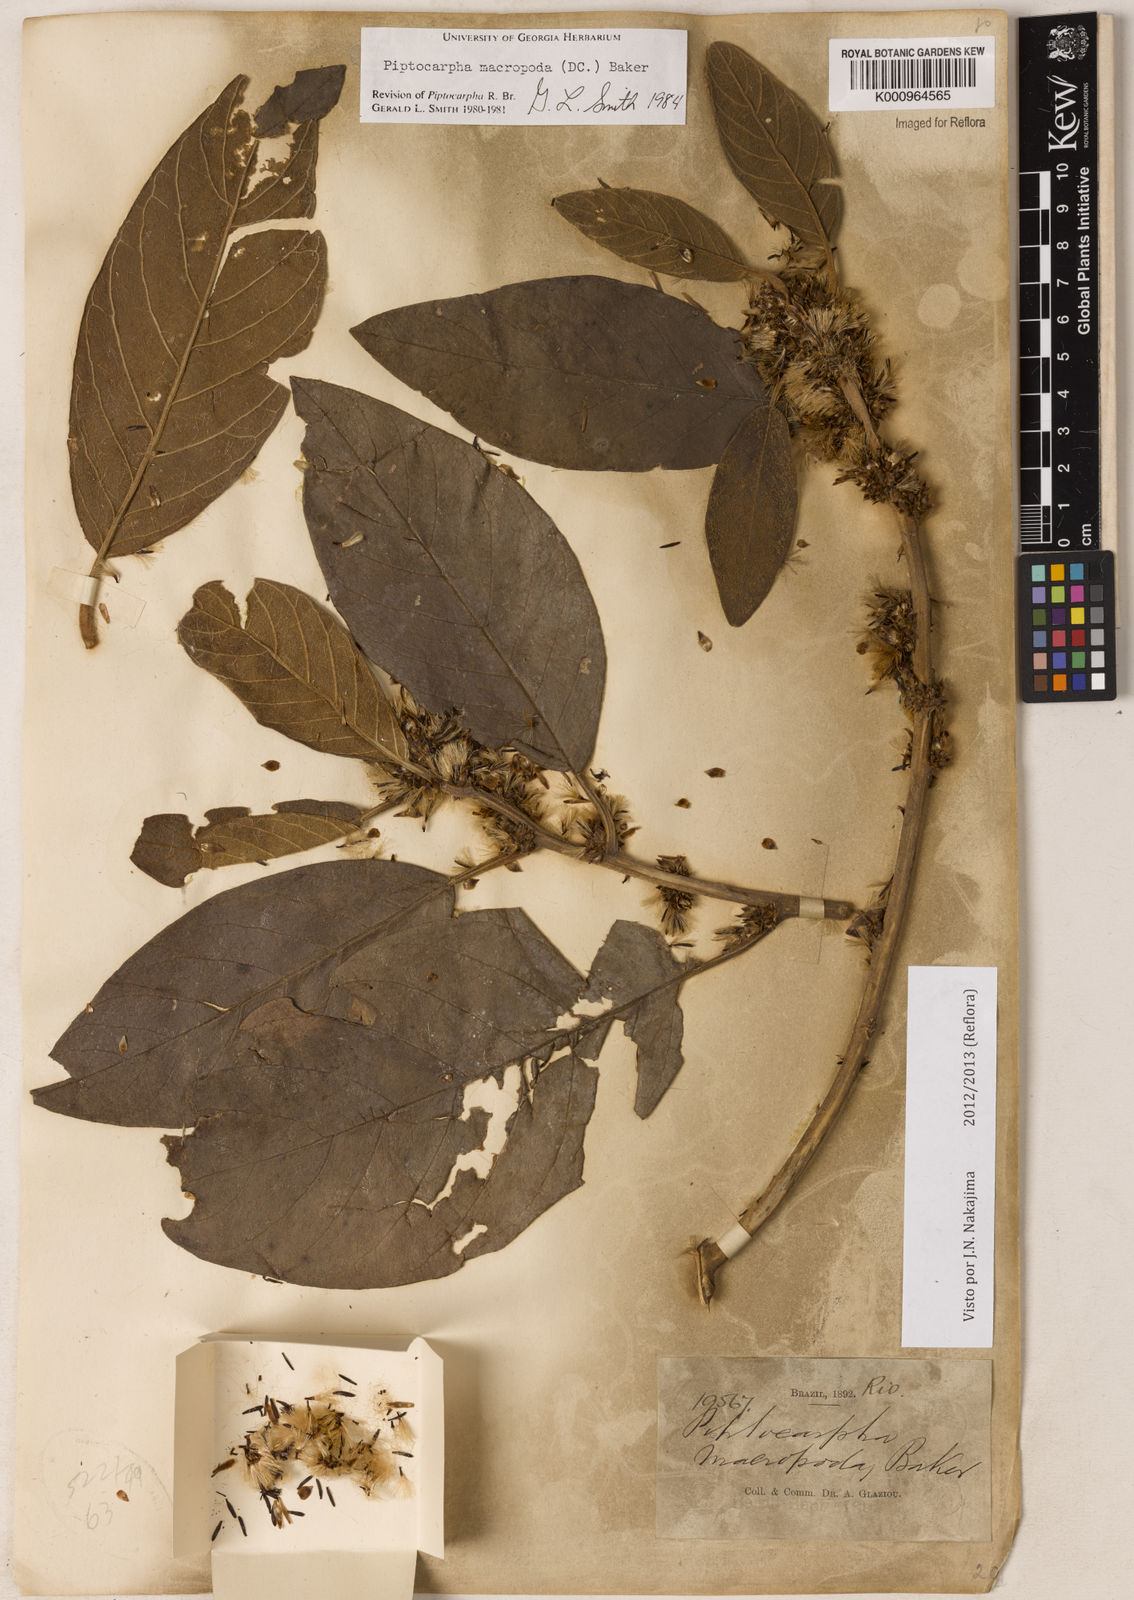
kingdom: Plantae
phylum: Tracheophyta
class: Magnoliopsida
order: Asterales
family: Asteraceae
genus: Piptocarpha
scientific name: Piptocarpha macropoda
